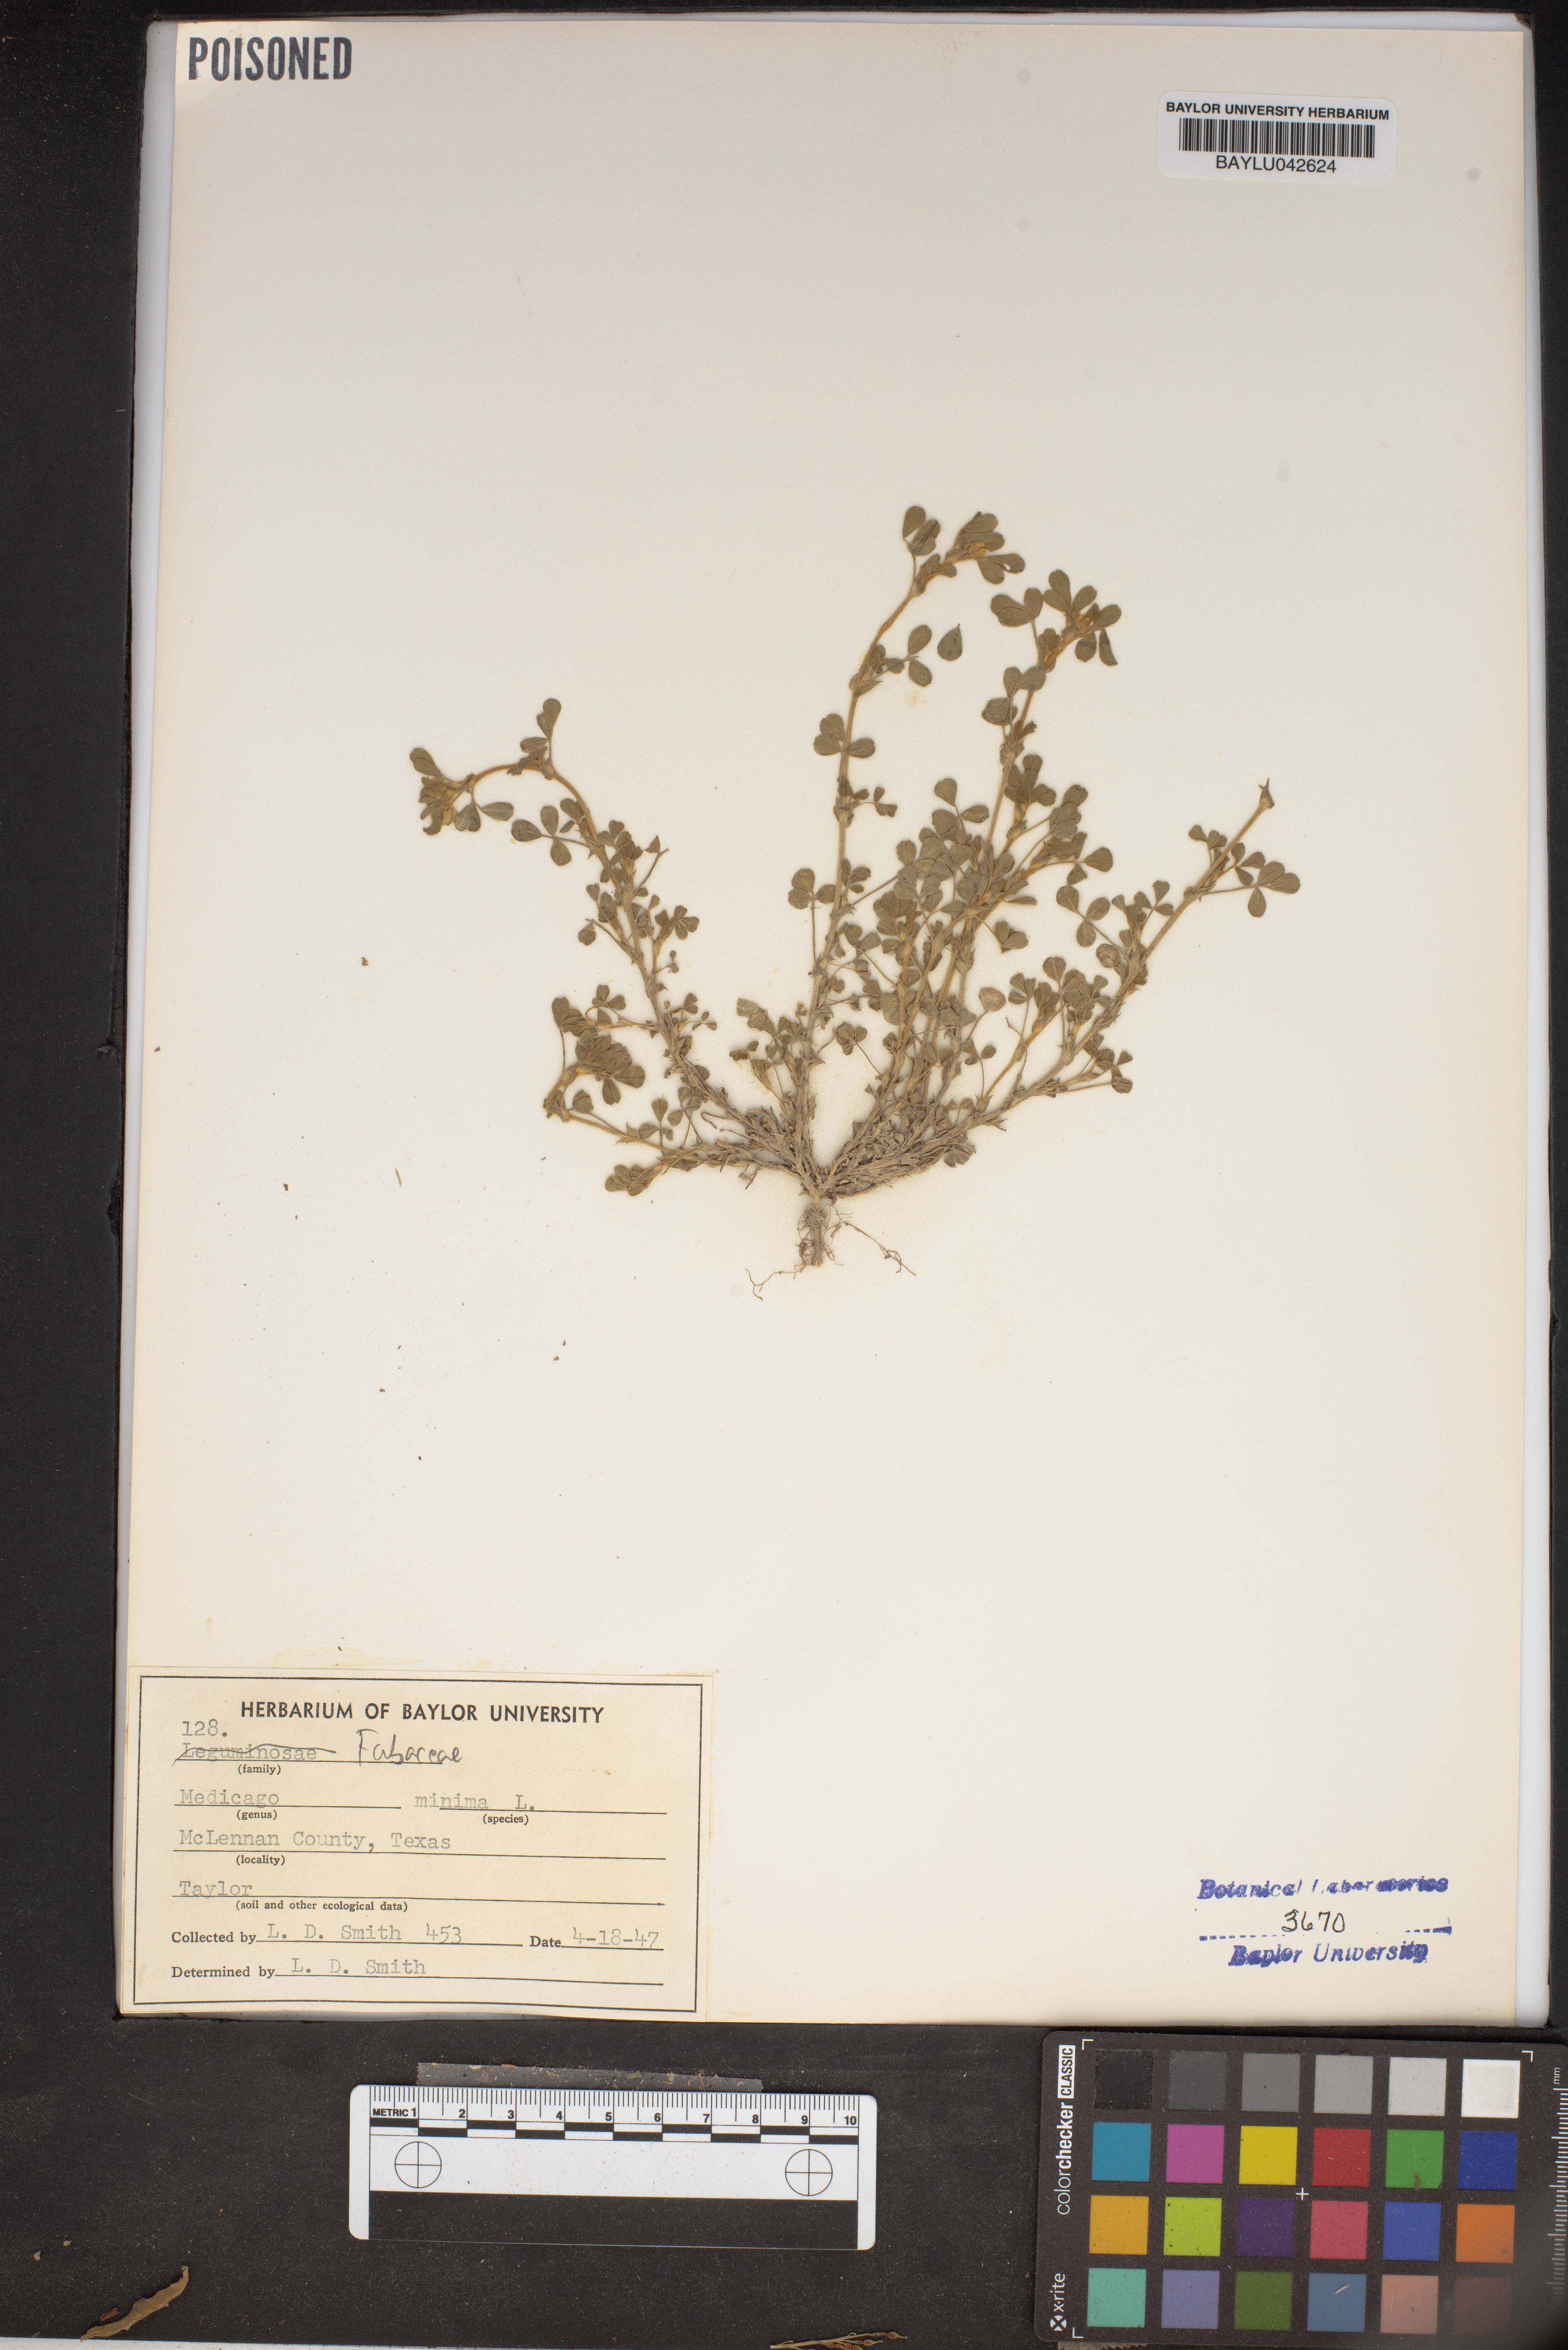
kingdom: Plantae
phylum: Tracheophyta
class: Magnoliopsida
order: Fabales
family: Fabaceae
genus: Medicago
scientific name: Medicago minima
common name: Little bur-clover
